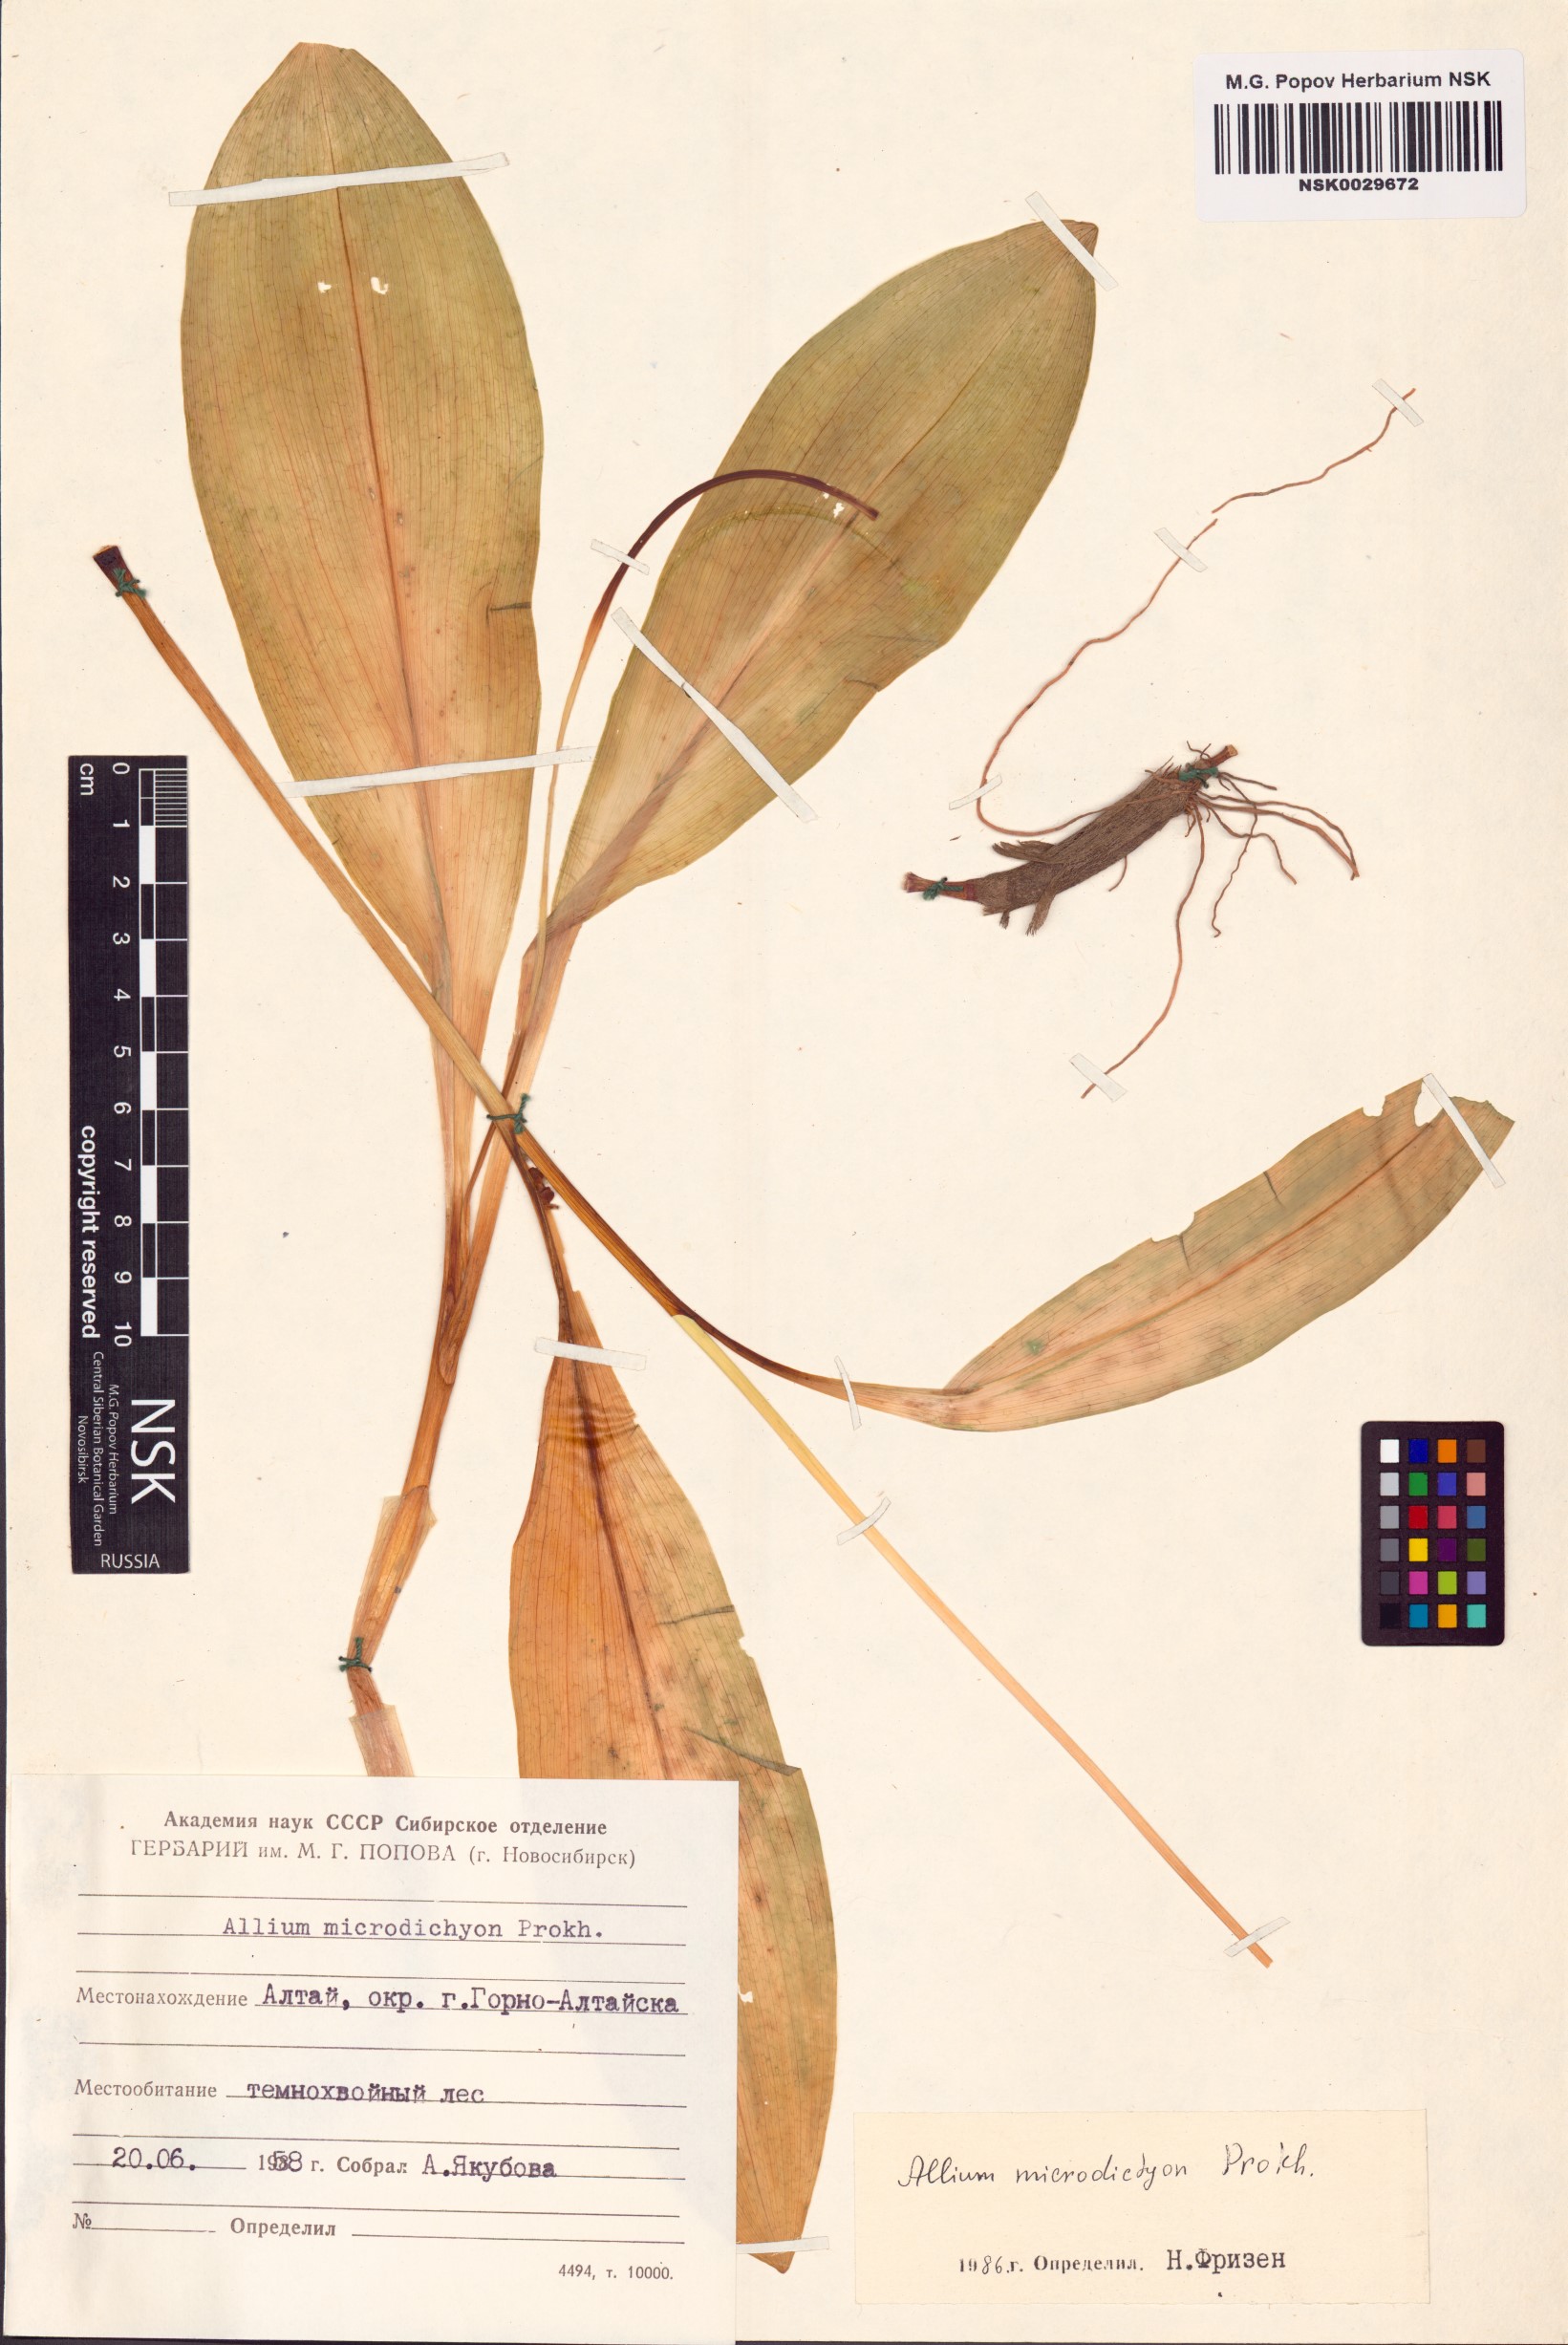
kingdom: Plantae
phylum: Tracheophyta
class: Liliopsida
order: Asparagales
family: Amaryllidaceae
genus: Allium
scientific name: Allium microdictyon
